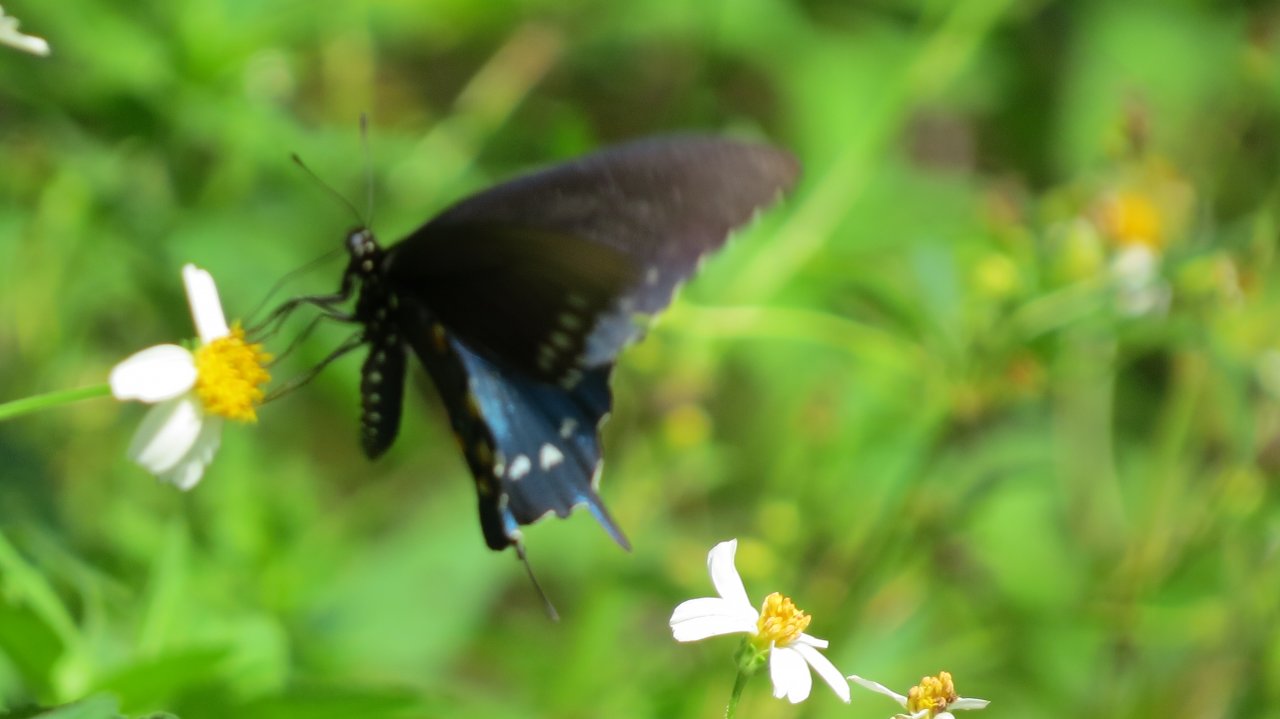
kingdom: Animalia
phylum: Arthropoda
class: Insecta
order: Lepidoptera
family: Papilionidae
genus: Battus
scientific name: Battus philenor
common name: Pipevine Swallowtail
